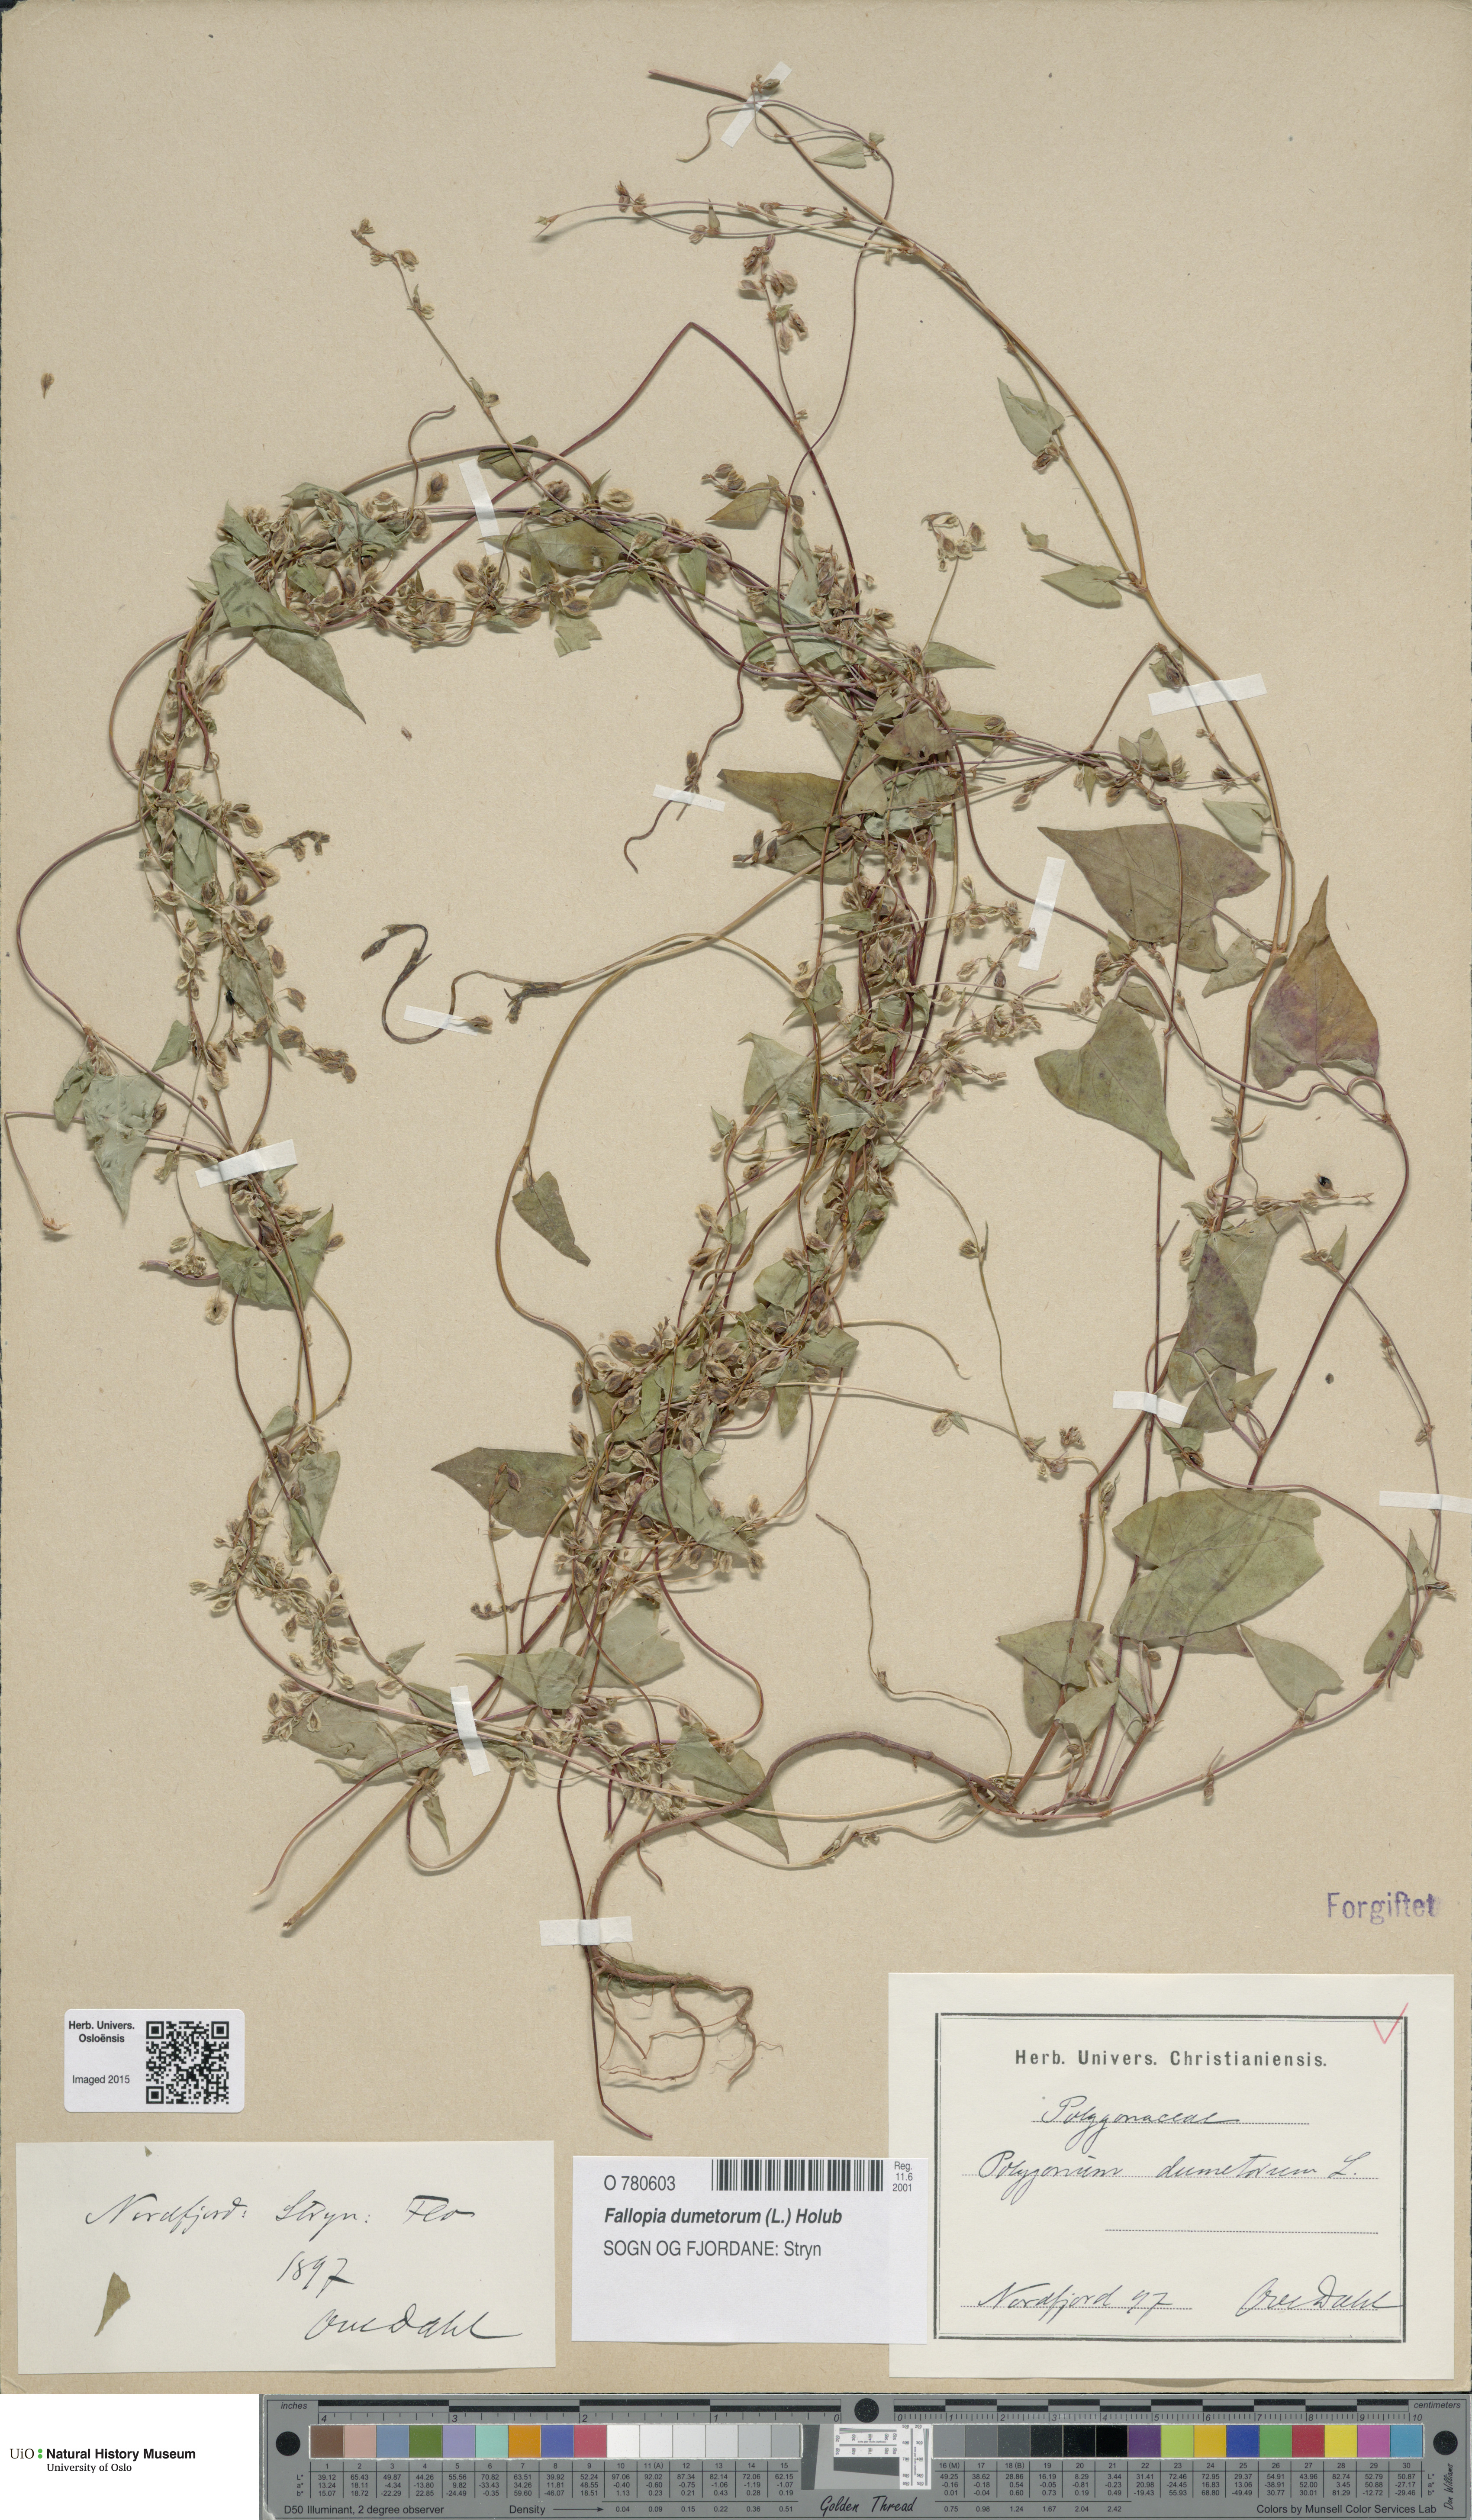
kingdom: Plantae
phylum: Tracheophyta
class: Magnoliopsida
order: Caryophyllales
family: Polygonaceae
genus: Fallopia
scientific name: Fallopia dumetorum
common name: Copse-bindweed
